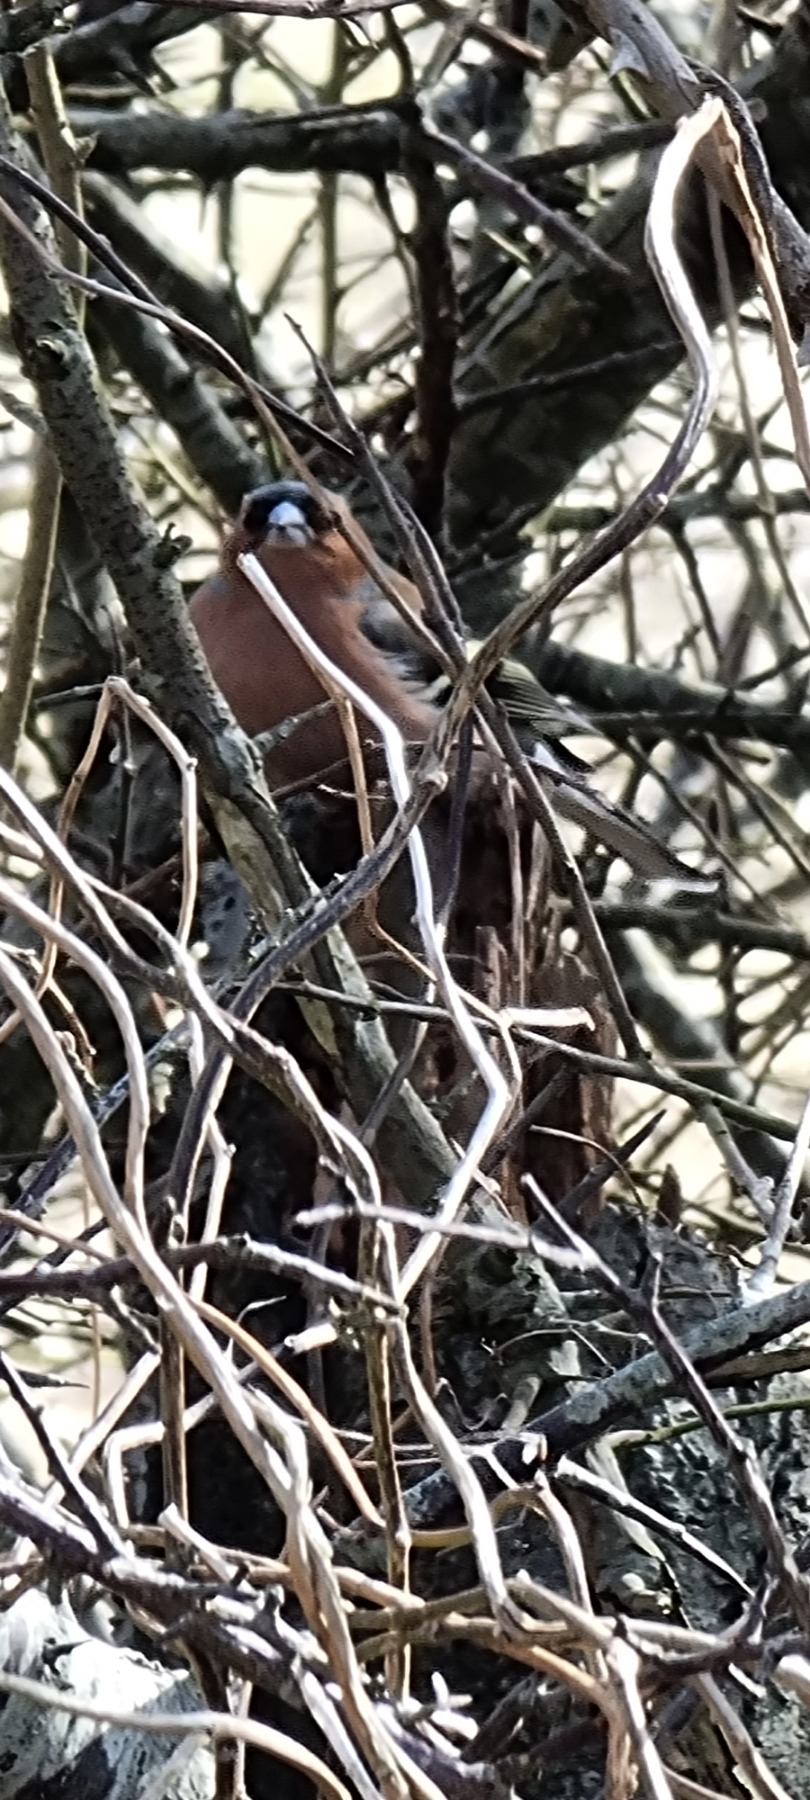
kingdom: Animalia
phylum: Chordata
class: Aves
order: Passeriformes
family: Fringillidae
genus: Fringilla
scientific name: Fringilla coelebs
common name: Bogfinke
